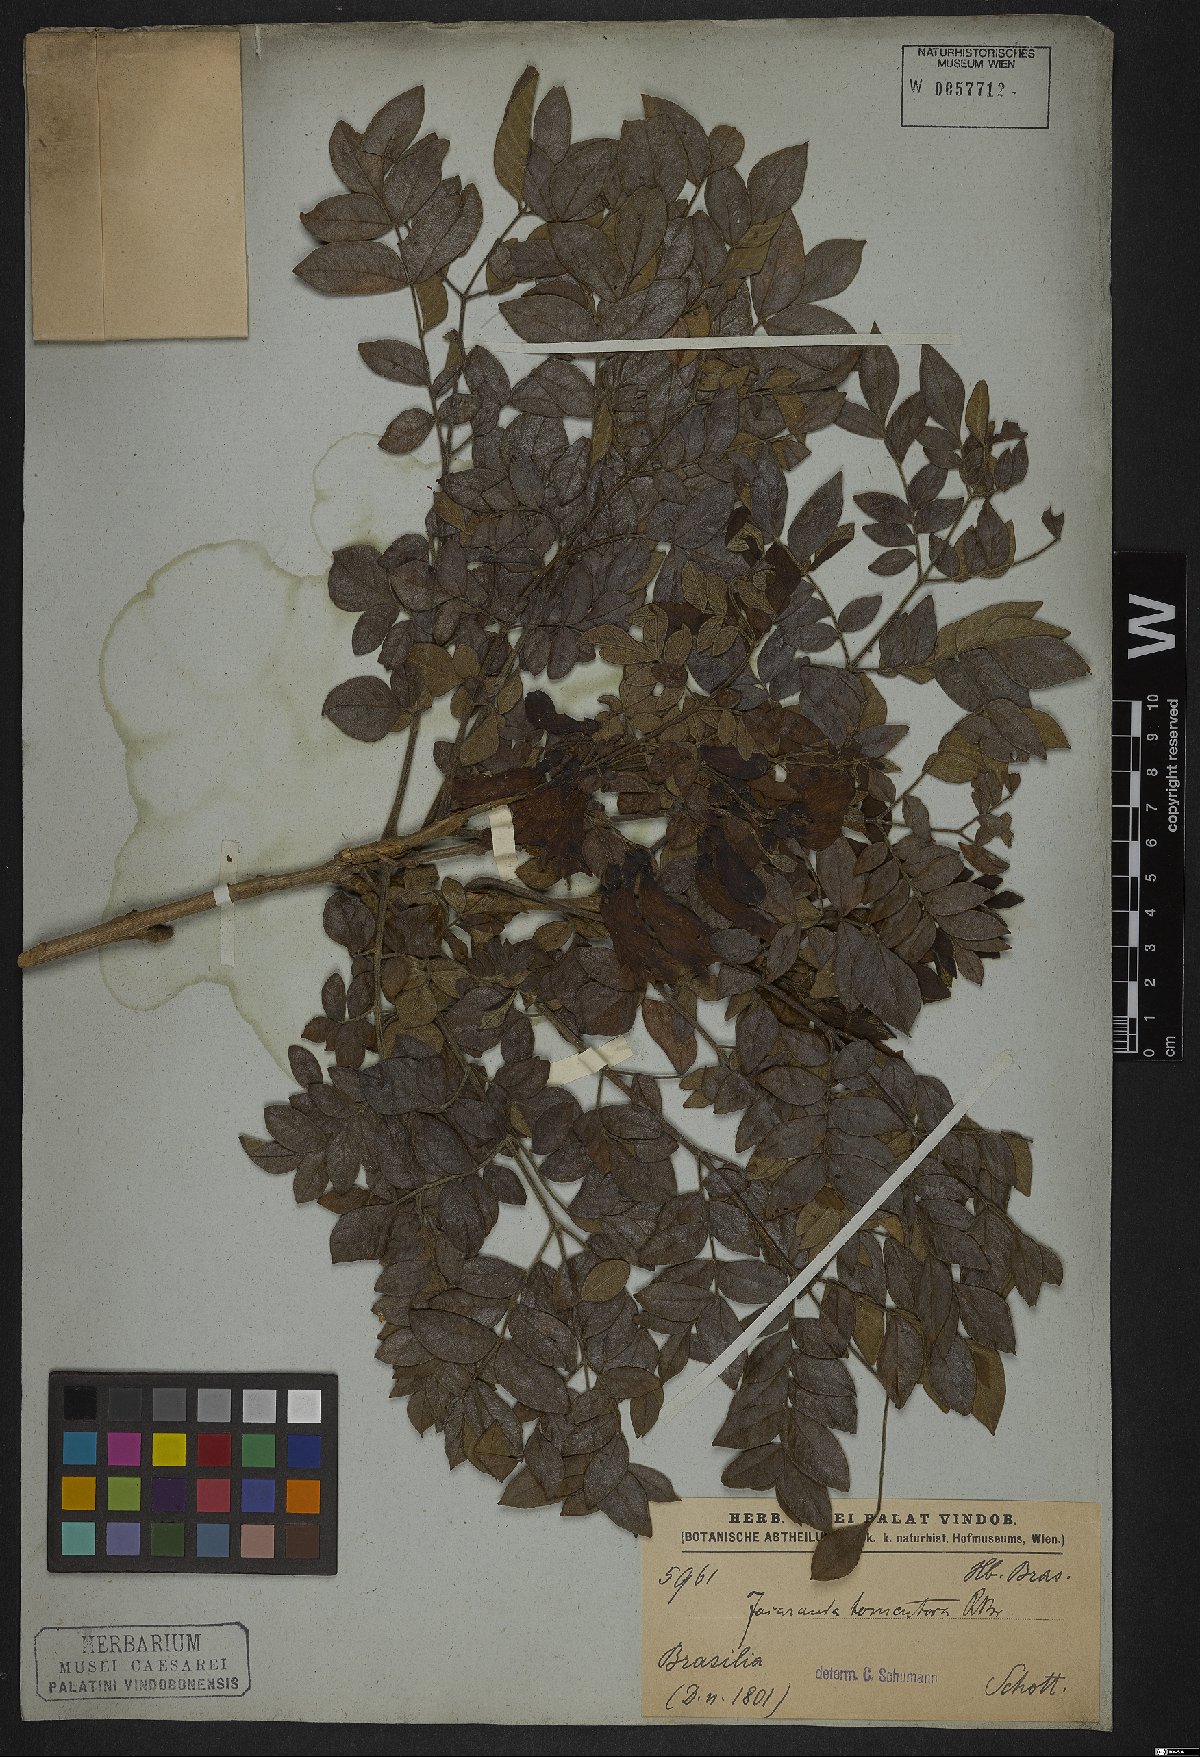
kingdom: Plantae
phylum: Tracheophyta
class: Magnoliopsida
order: Lamiales
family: Bignoniaceae
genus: Jacaranda
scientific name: Jacaranda jasminoides
